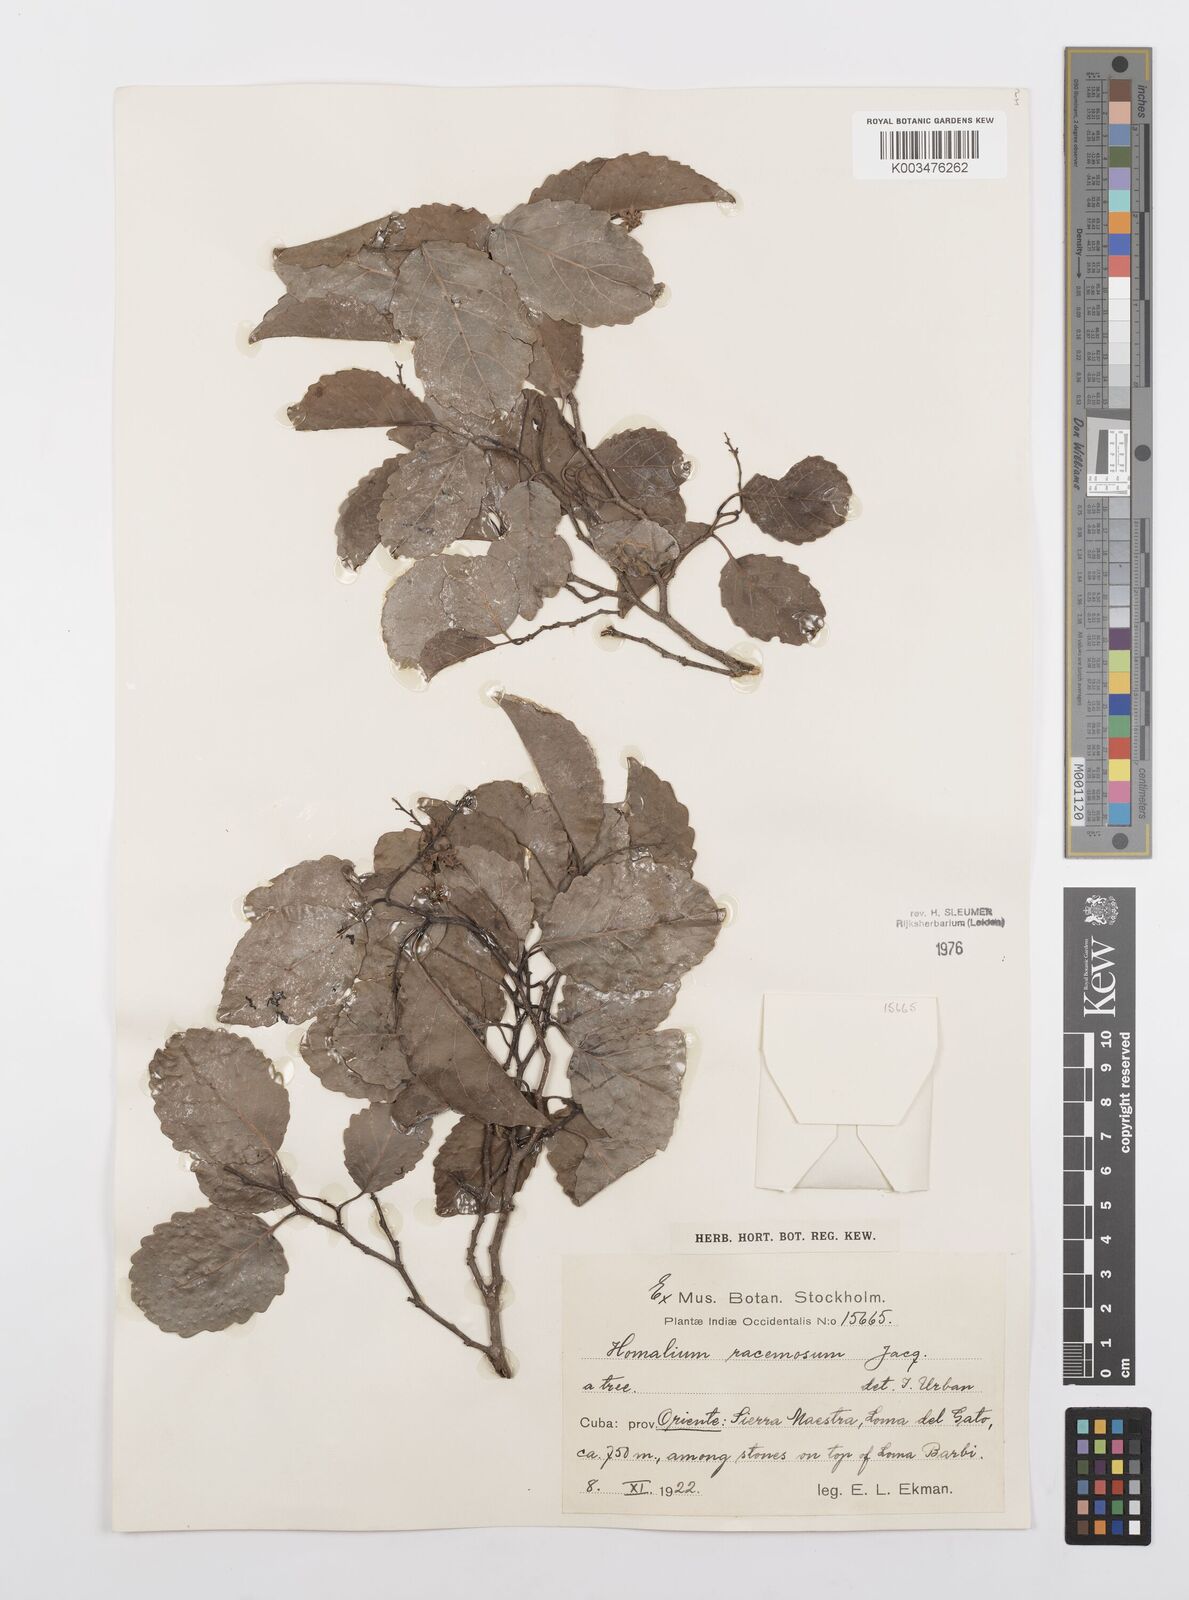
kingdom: Plantae
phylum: Tracheophyta
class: Magnoliopsida
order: Malpighiales
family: Salicaceae
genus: Homalium
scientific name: Homalium racemosum
